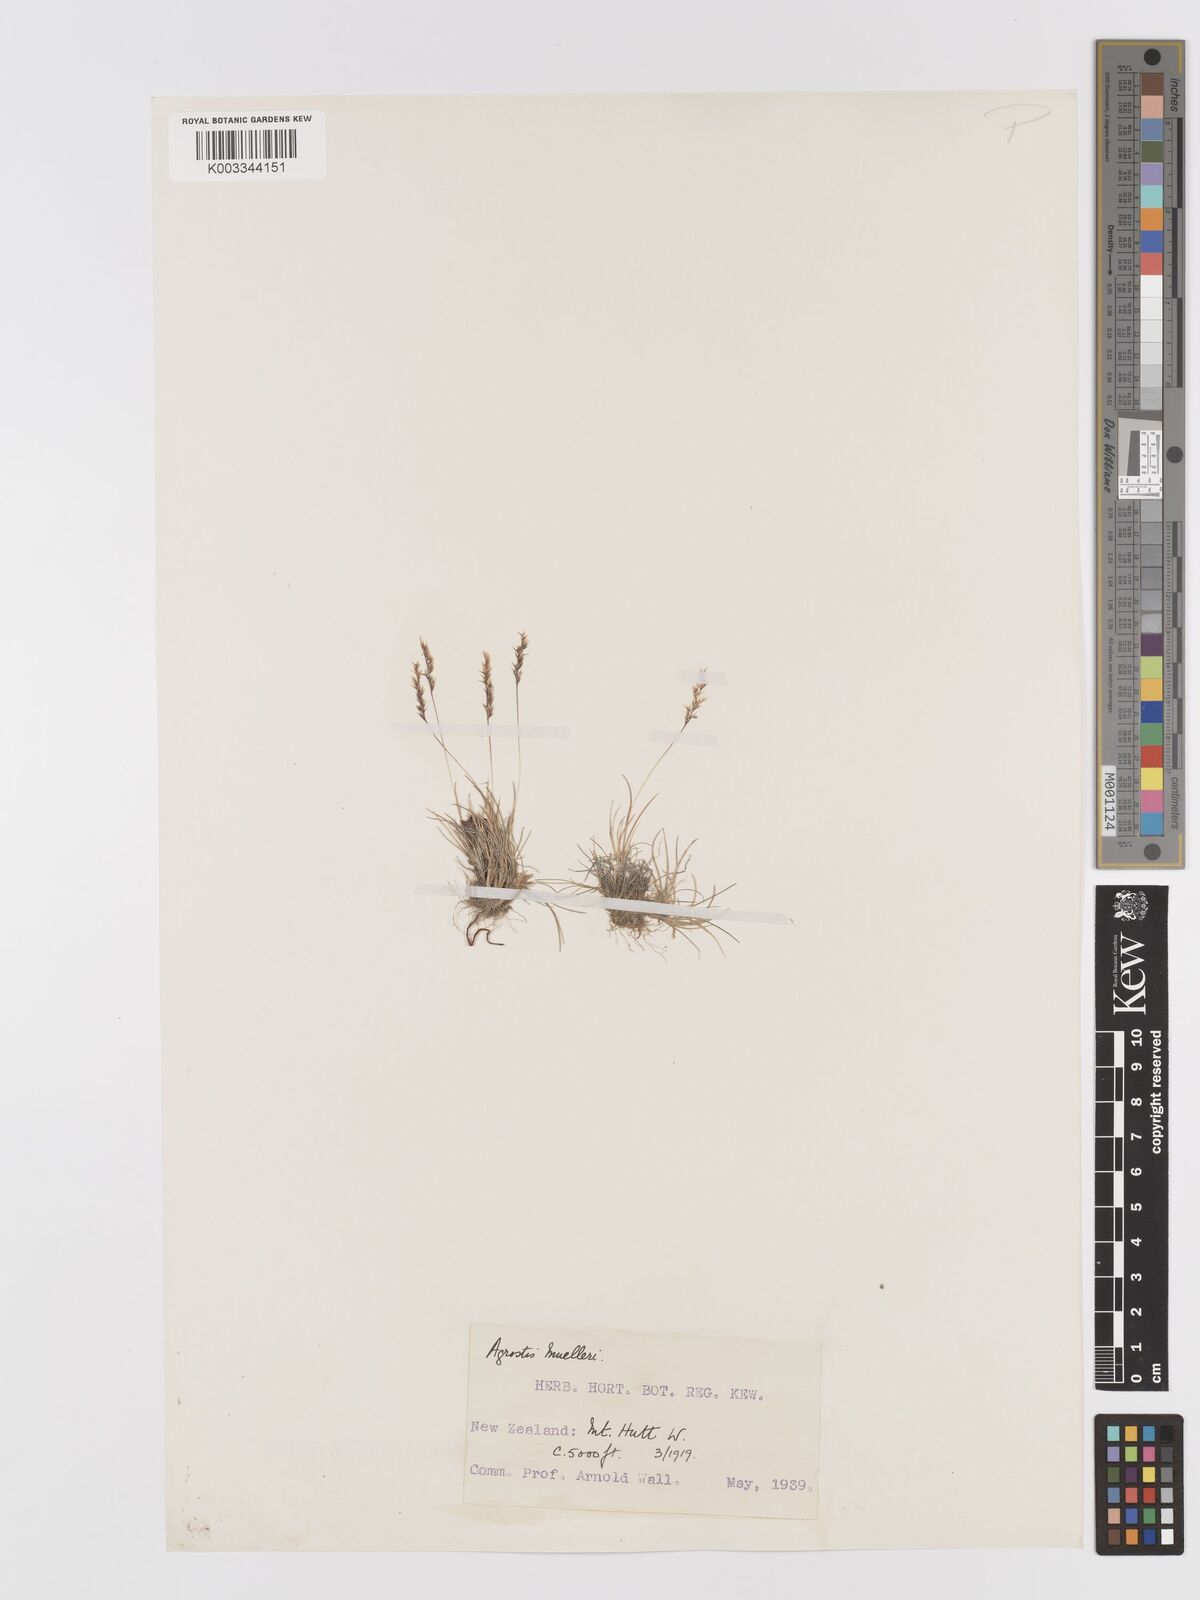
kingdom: Plantae
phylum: Tracheophyta
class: Liliopsida
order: Poales
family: Poaceae
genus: Agrostis
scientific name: Agrostis muelleriana
